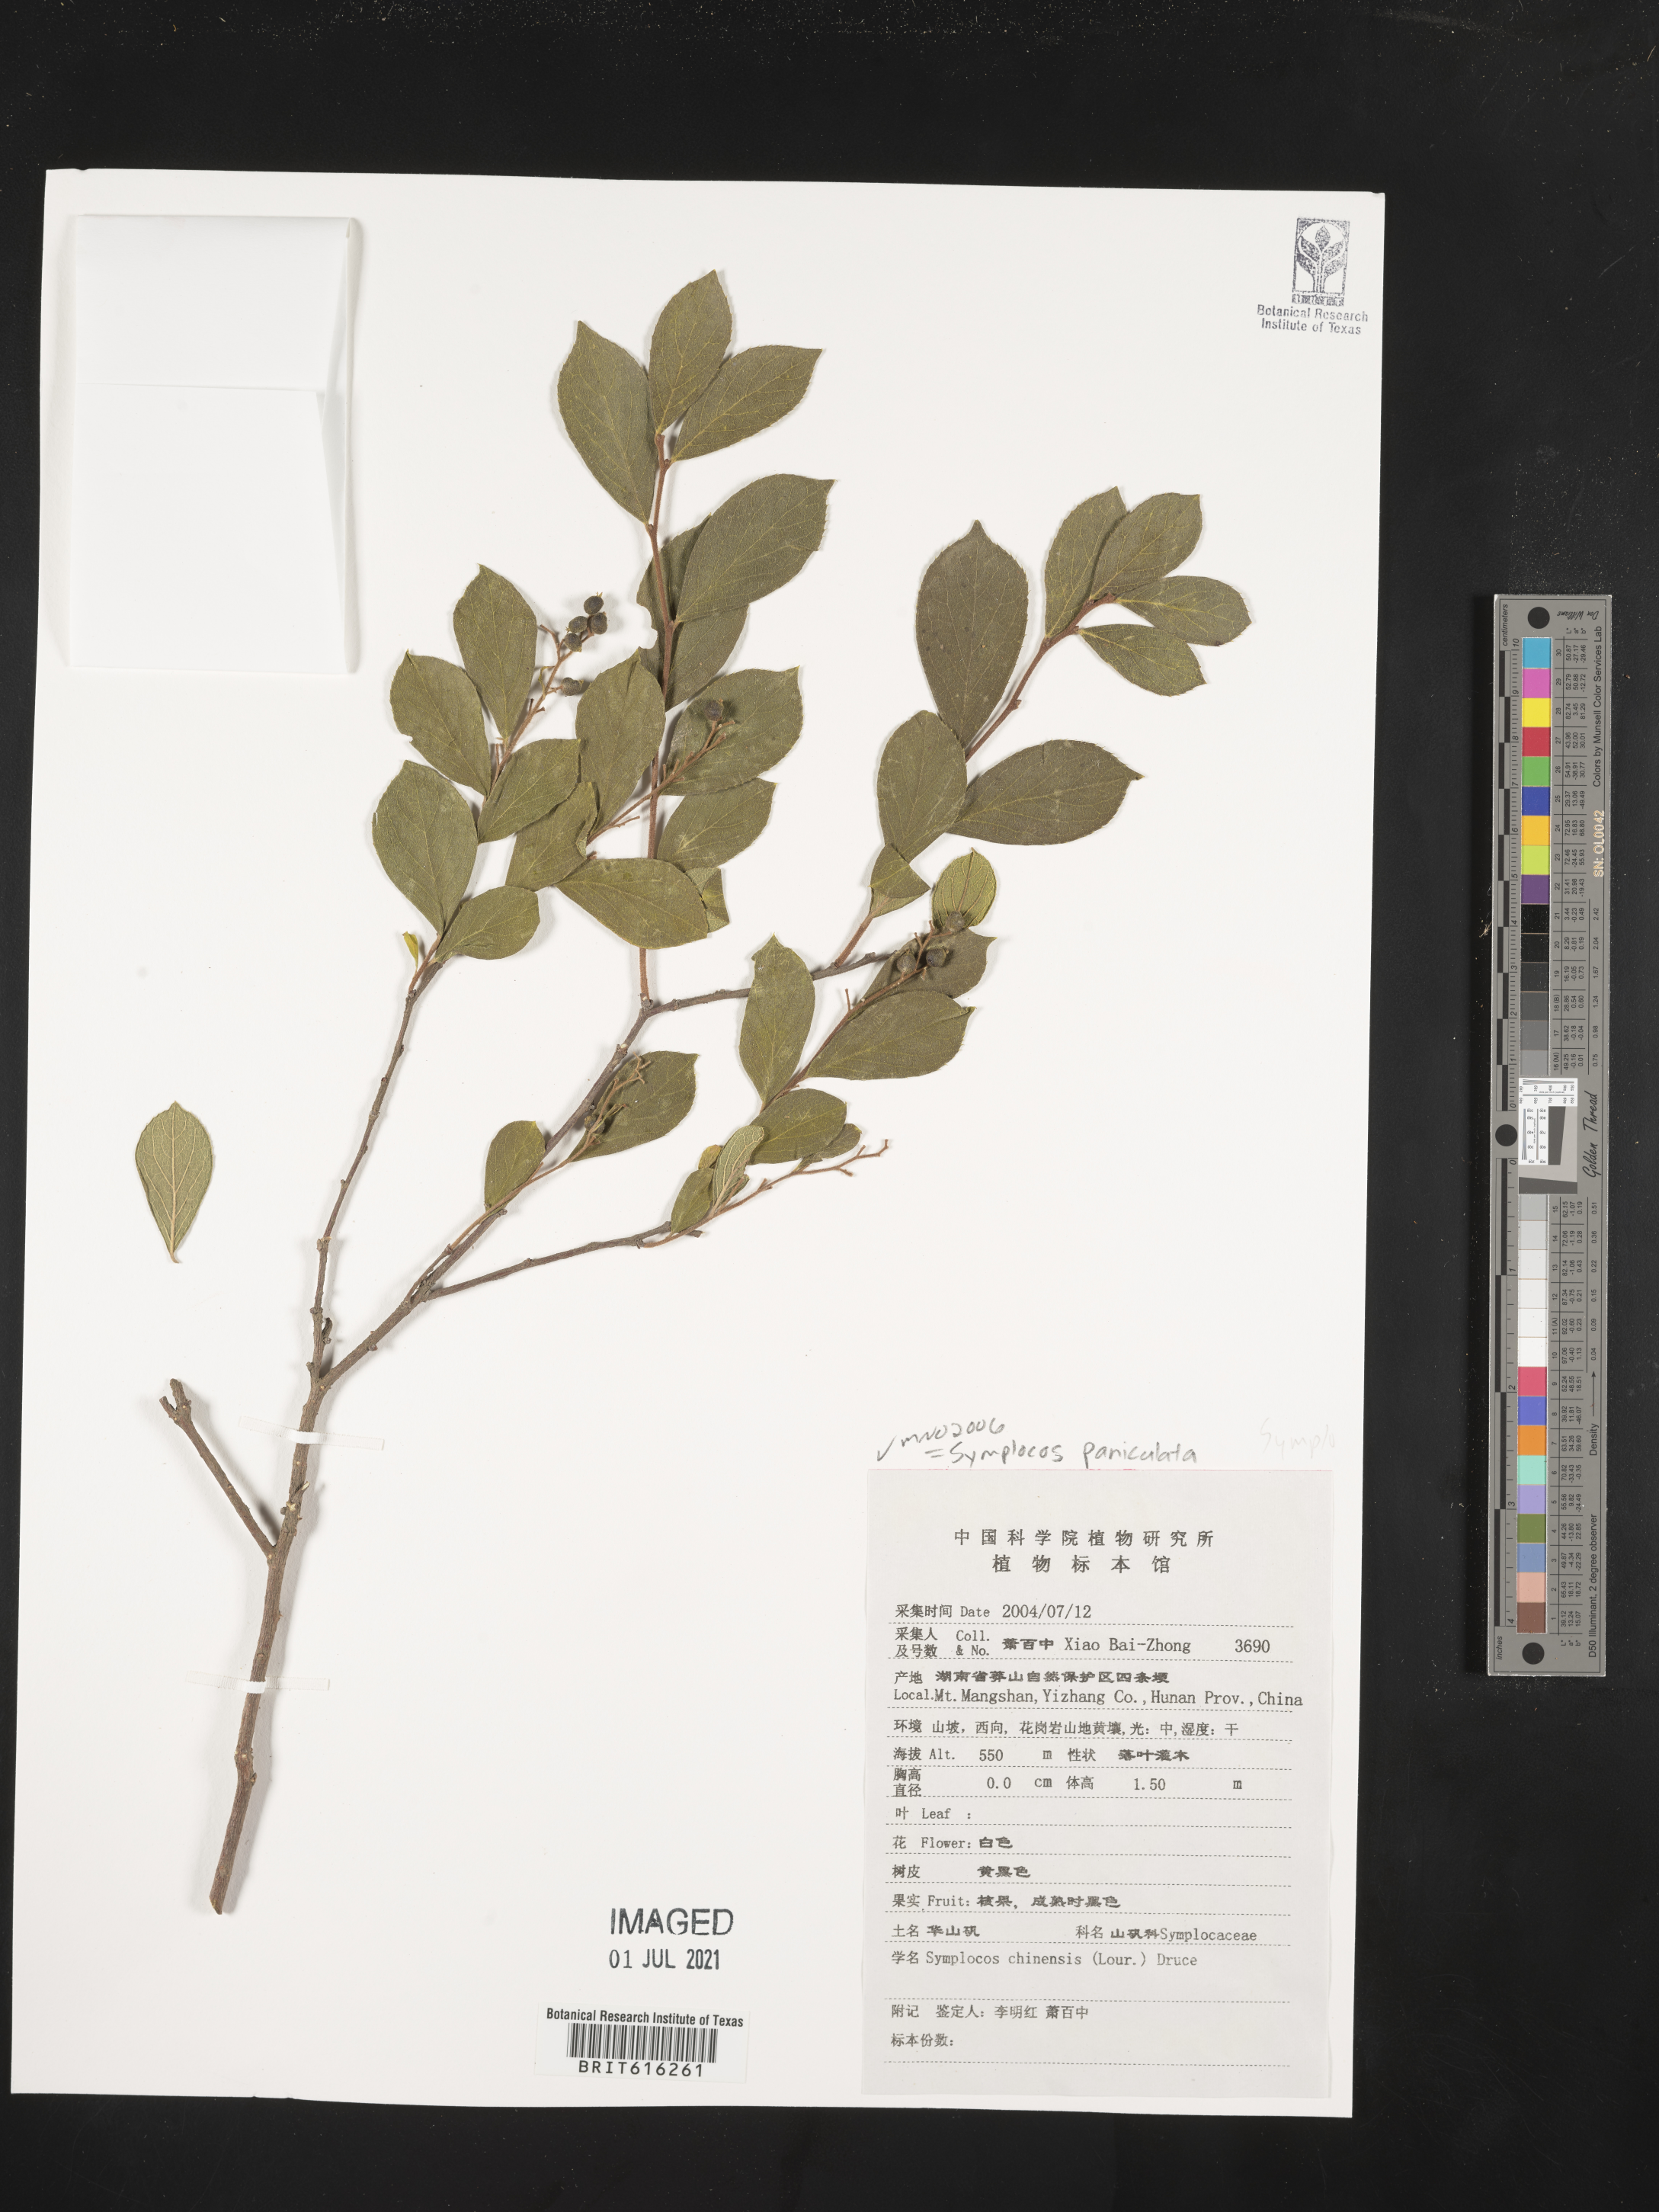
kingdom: Plantae
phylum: Tracheophyta
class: Magnoliopsida
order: Ericales
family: Symplocaceae
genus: Symplocos
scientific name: Symplocos paniculata
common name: Sapphire-berry
